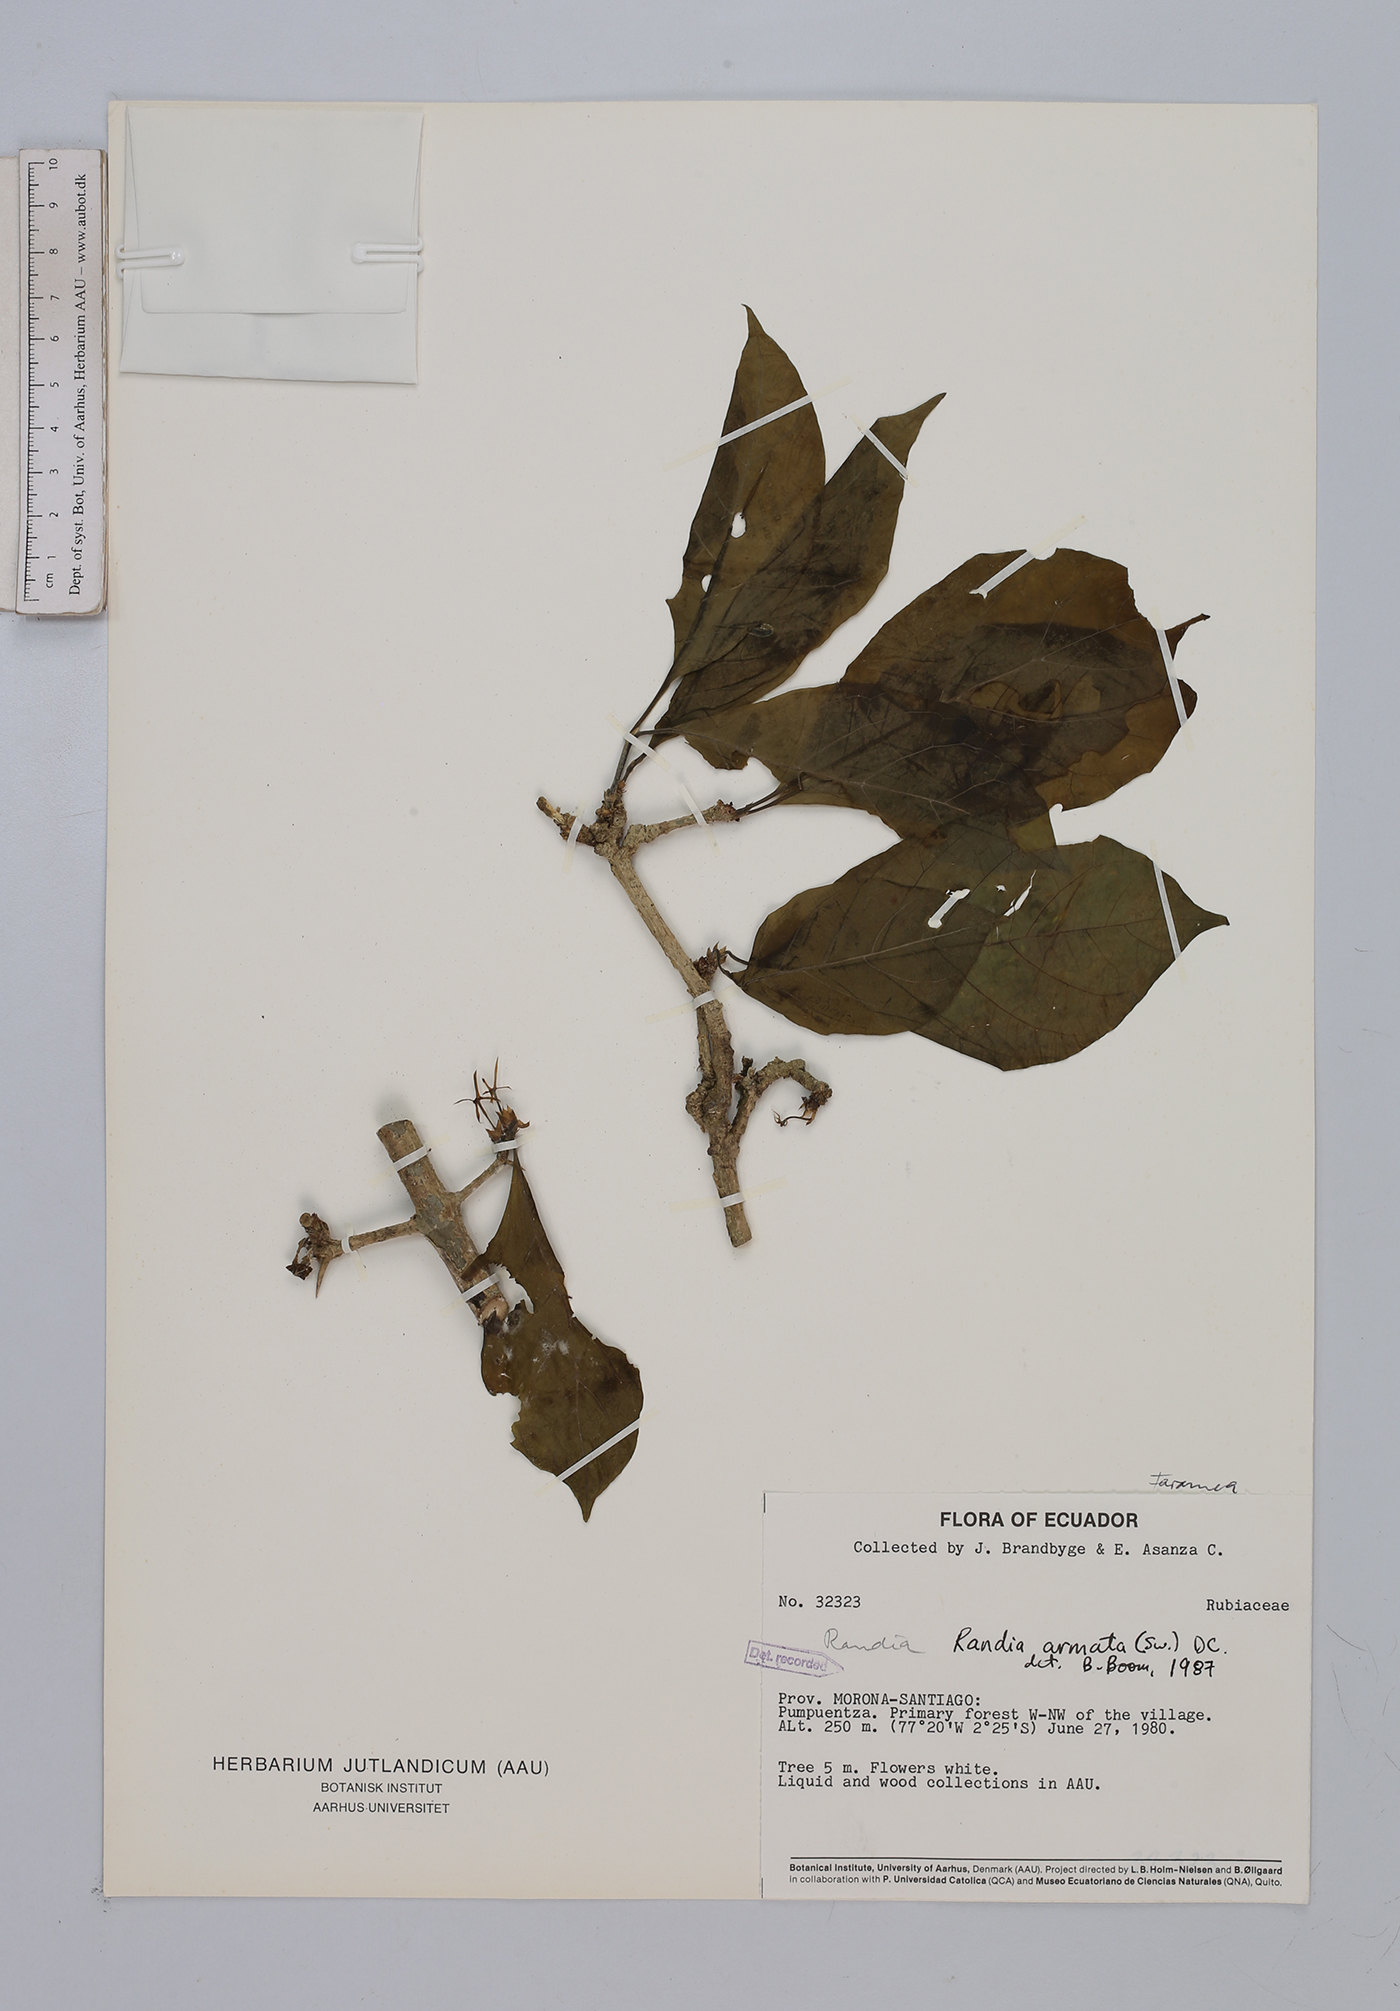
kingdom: Plantae
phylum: Tracheophyta
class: Magnoliopsida
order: Gentianales
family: Rubiaceae
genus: Randia
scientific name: Randia armata
